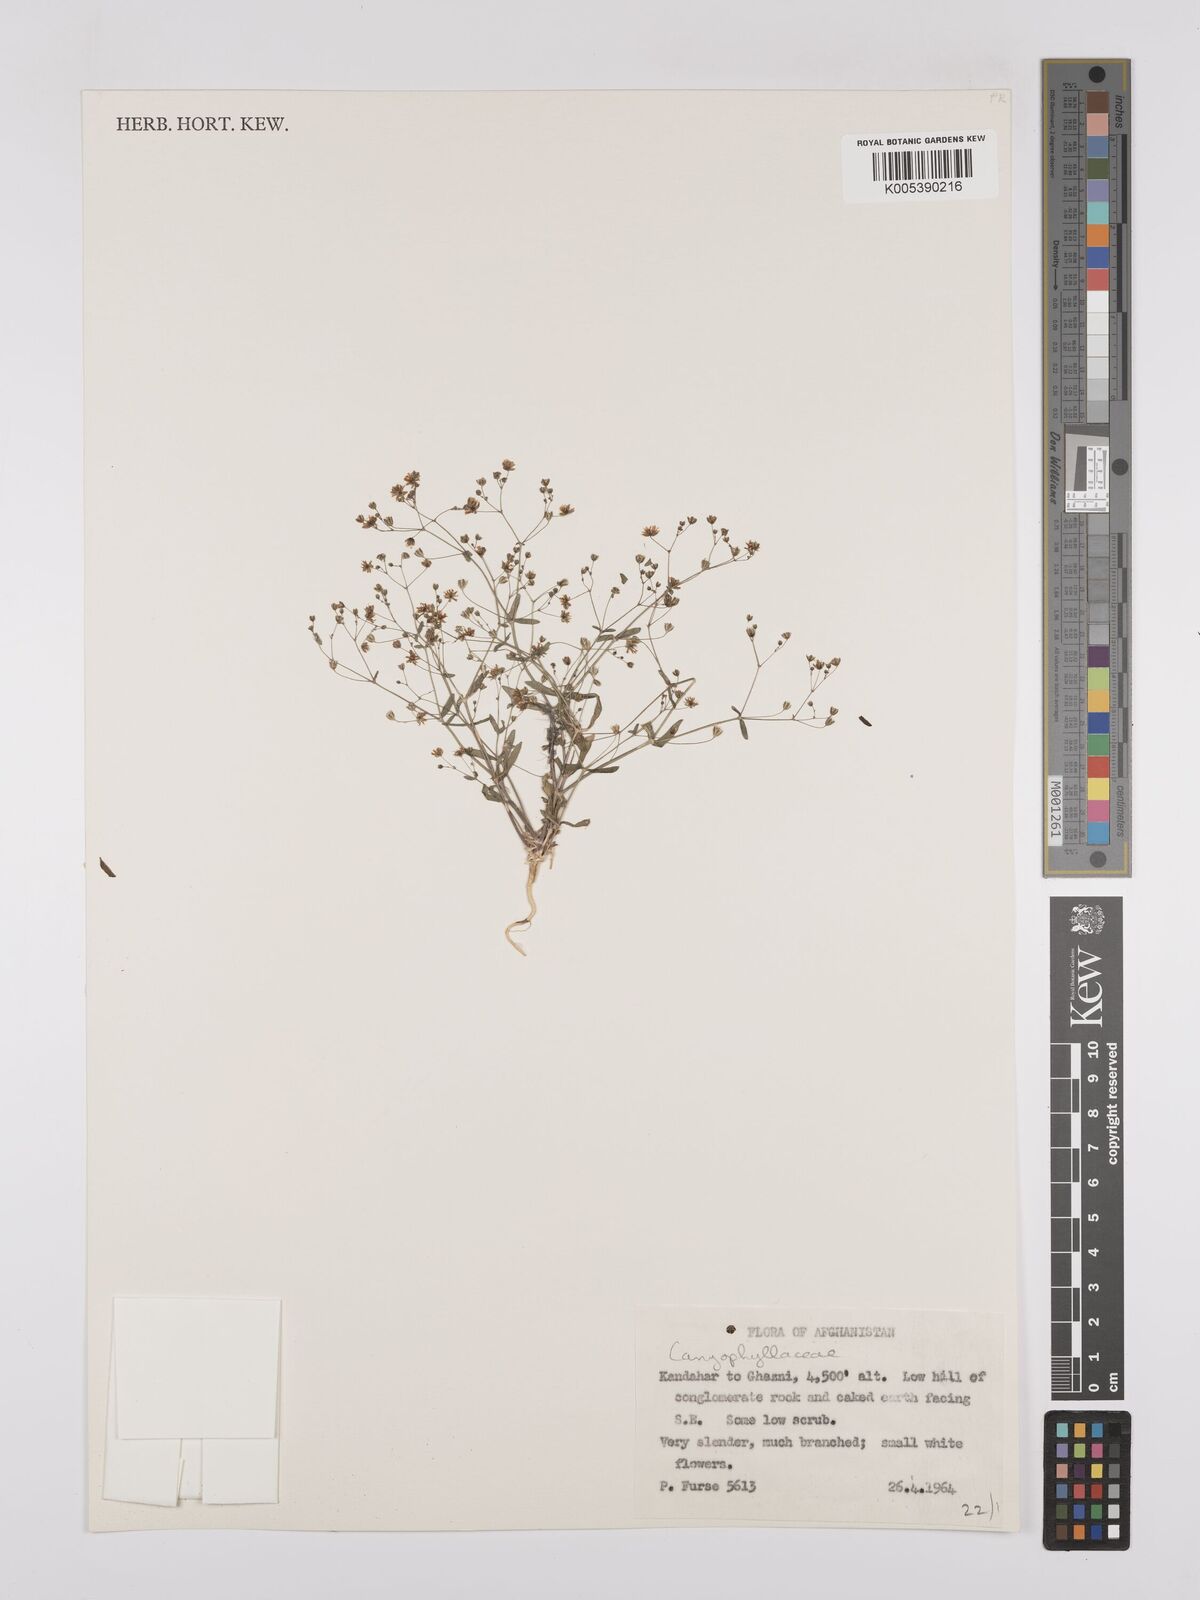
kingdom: Plantae
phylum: Tracheophyta
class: Magnoliopsida
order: Caryophyllales
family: Caryophyllaceae
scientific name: Caryophyllaceae
